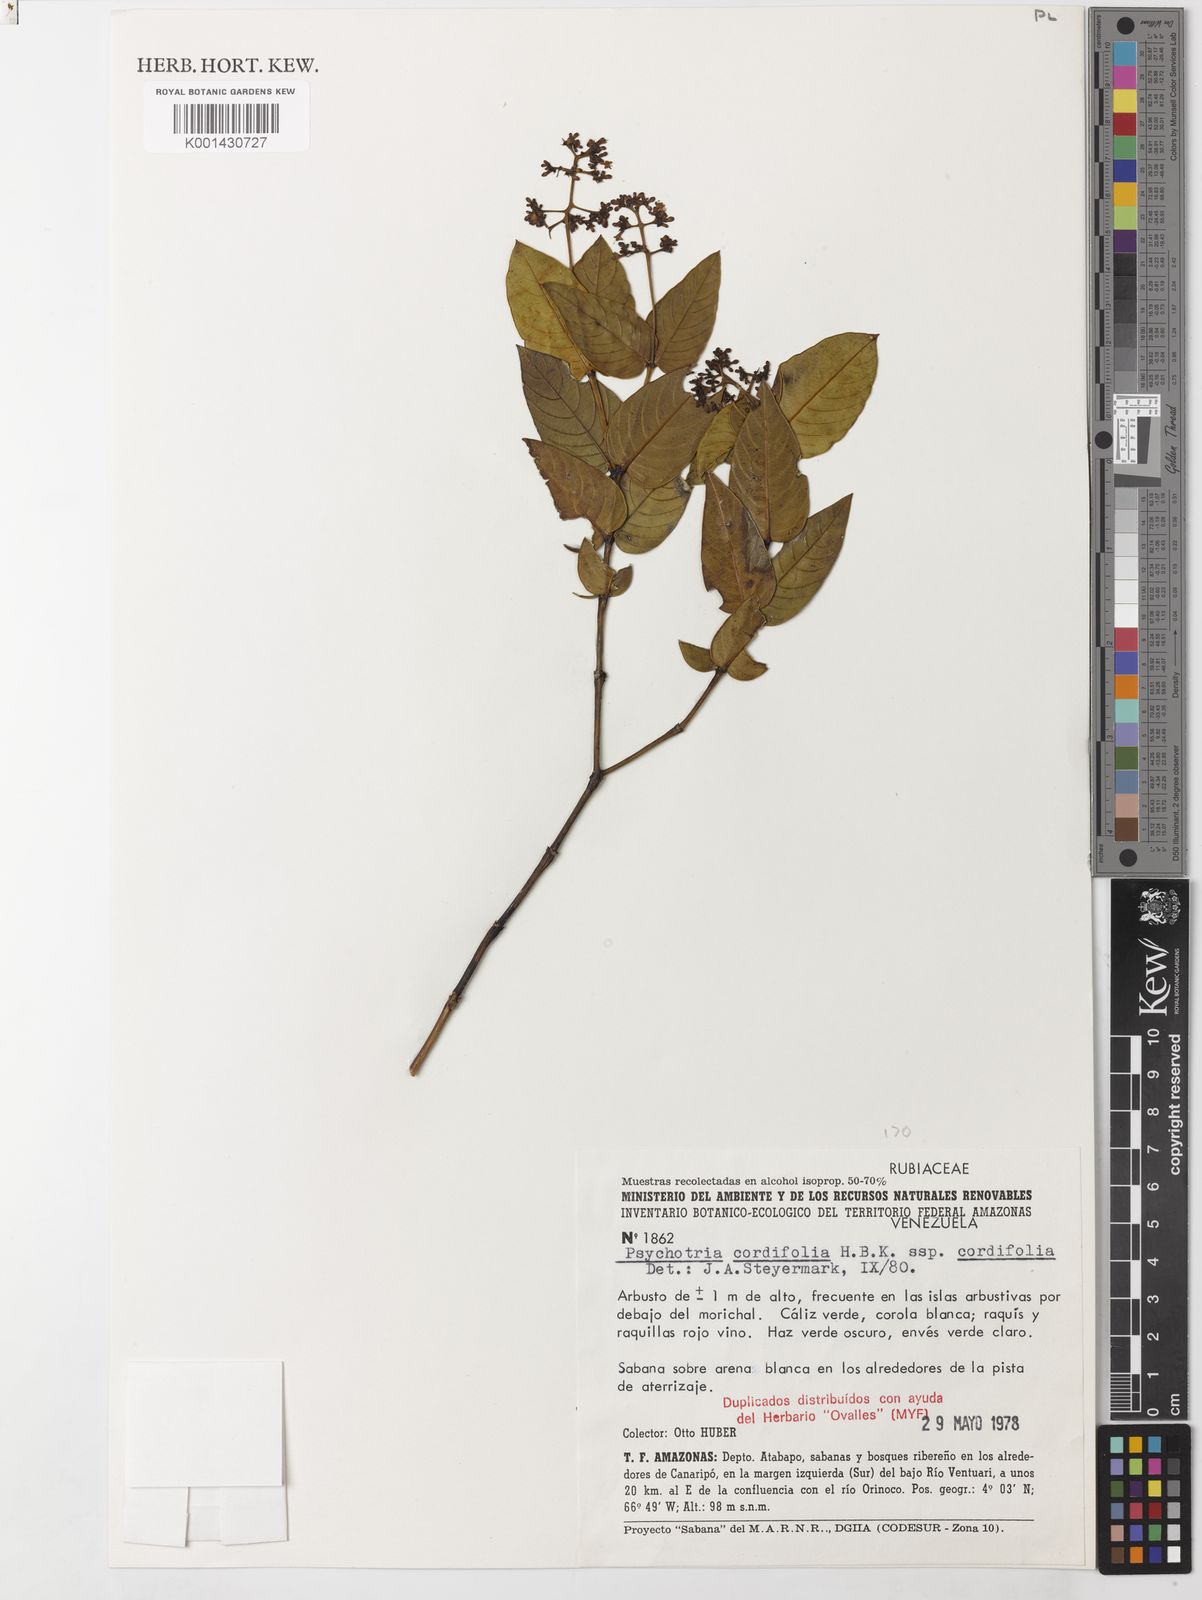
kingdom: Plantae
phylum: Tracheophyta
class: Magnoliopsida
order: Gentianales
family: Rubiaceae
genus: Palicourea
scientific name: Palicourea cardiomorpha
